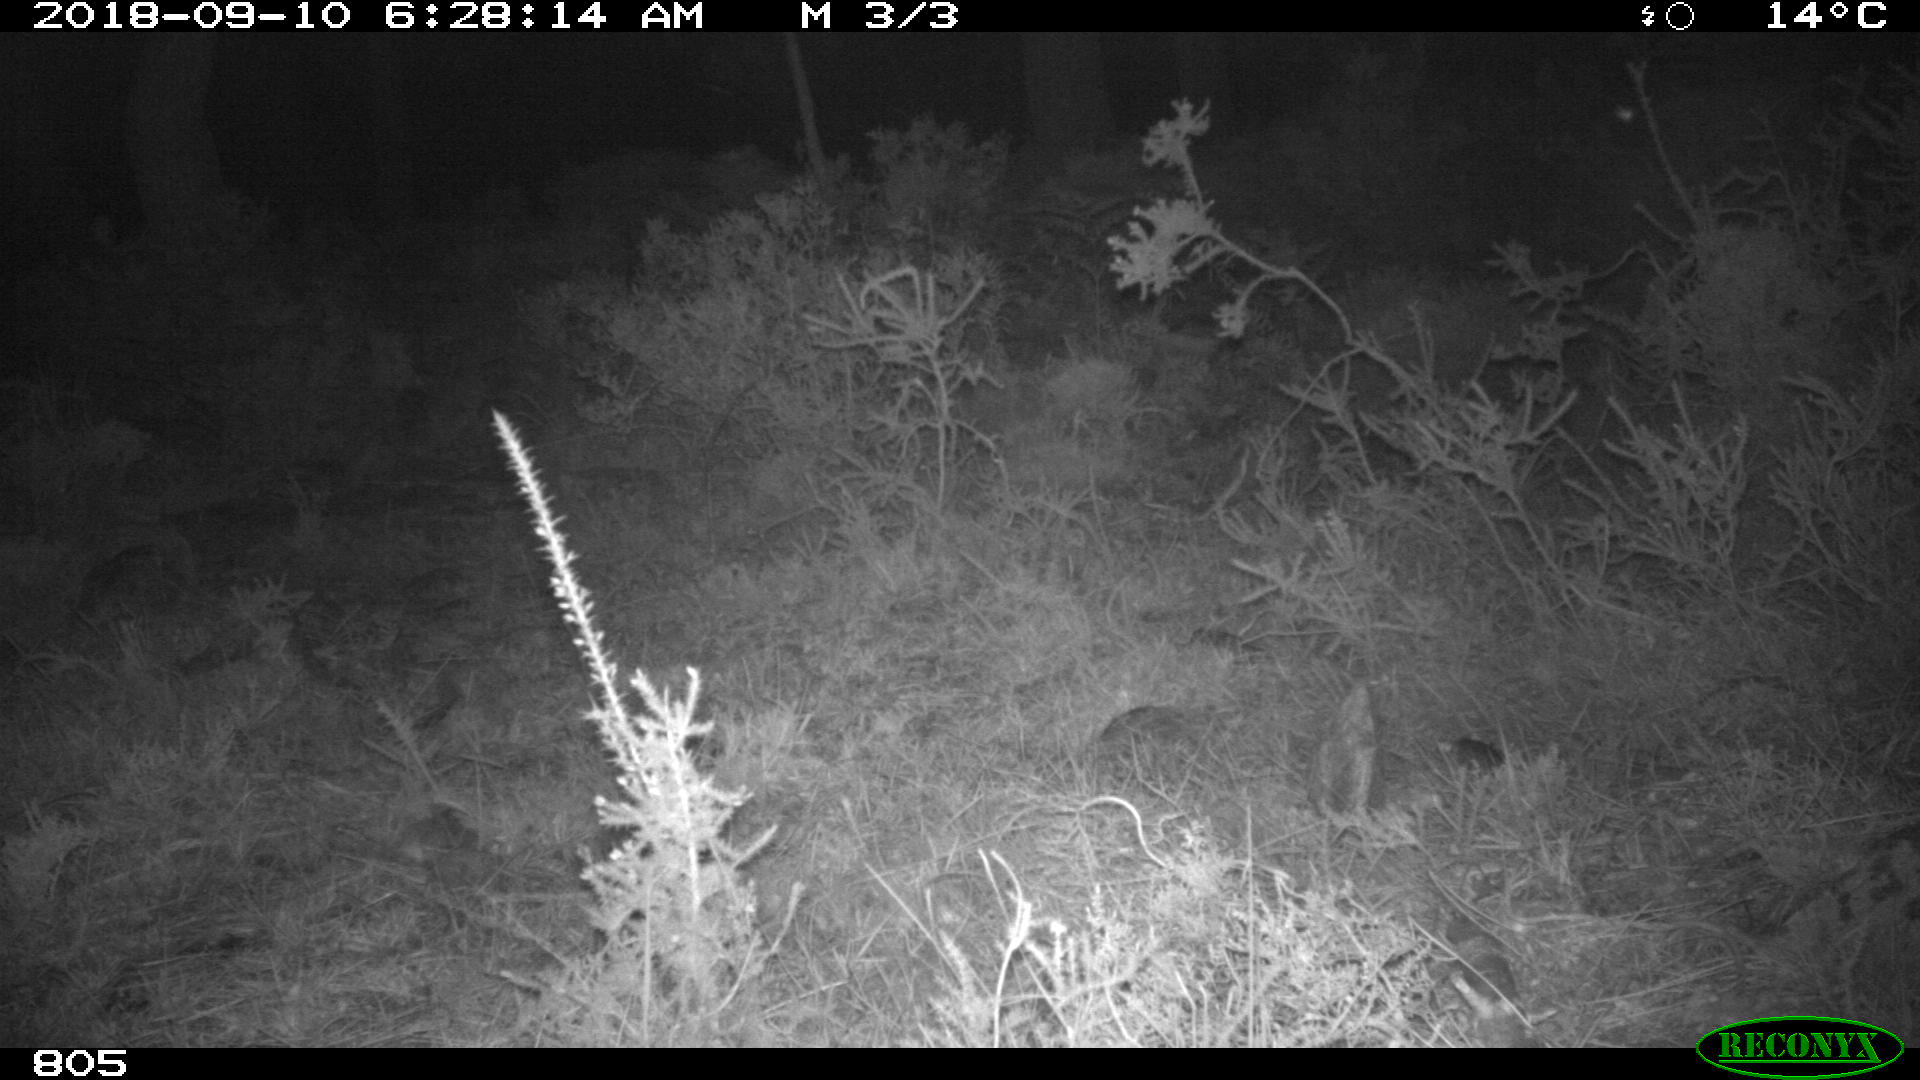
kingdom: Animalia
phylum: Chordata
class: Mammalia
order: Artiodactyla
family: Suidae
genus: Sus
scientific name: Sus scrofa
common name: Wild boar
